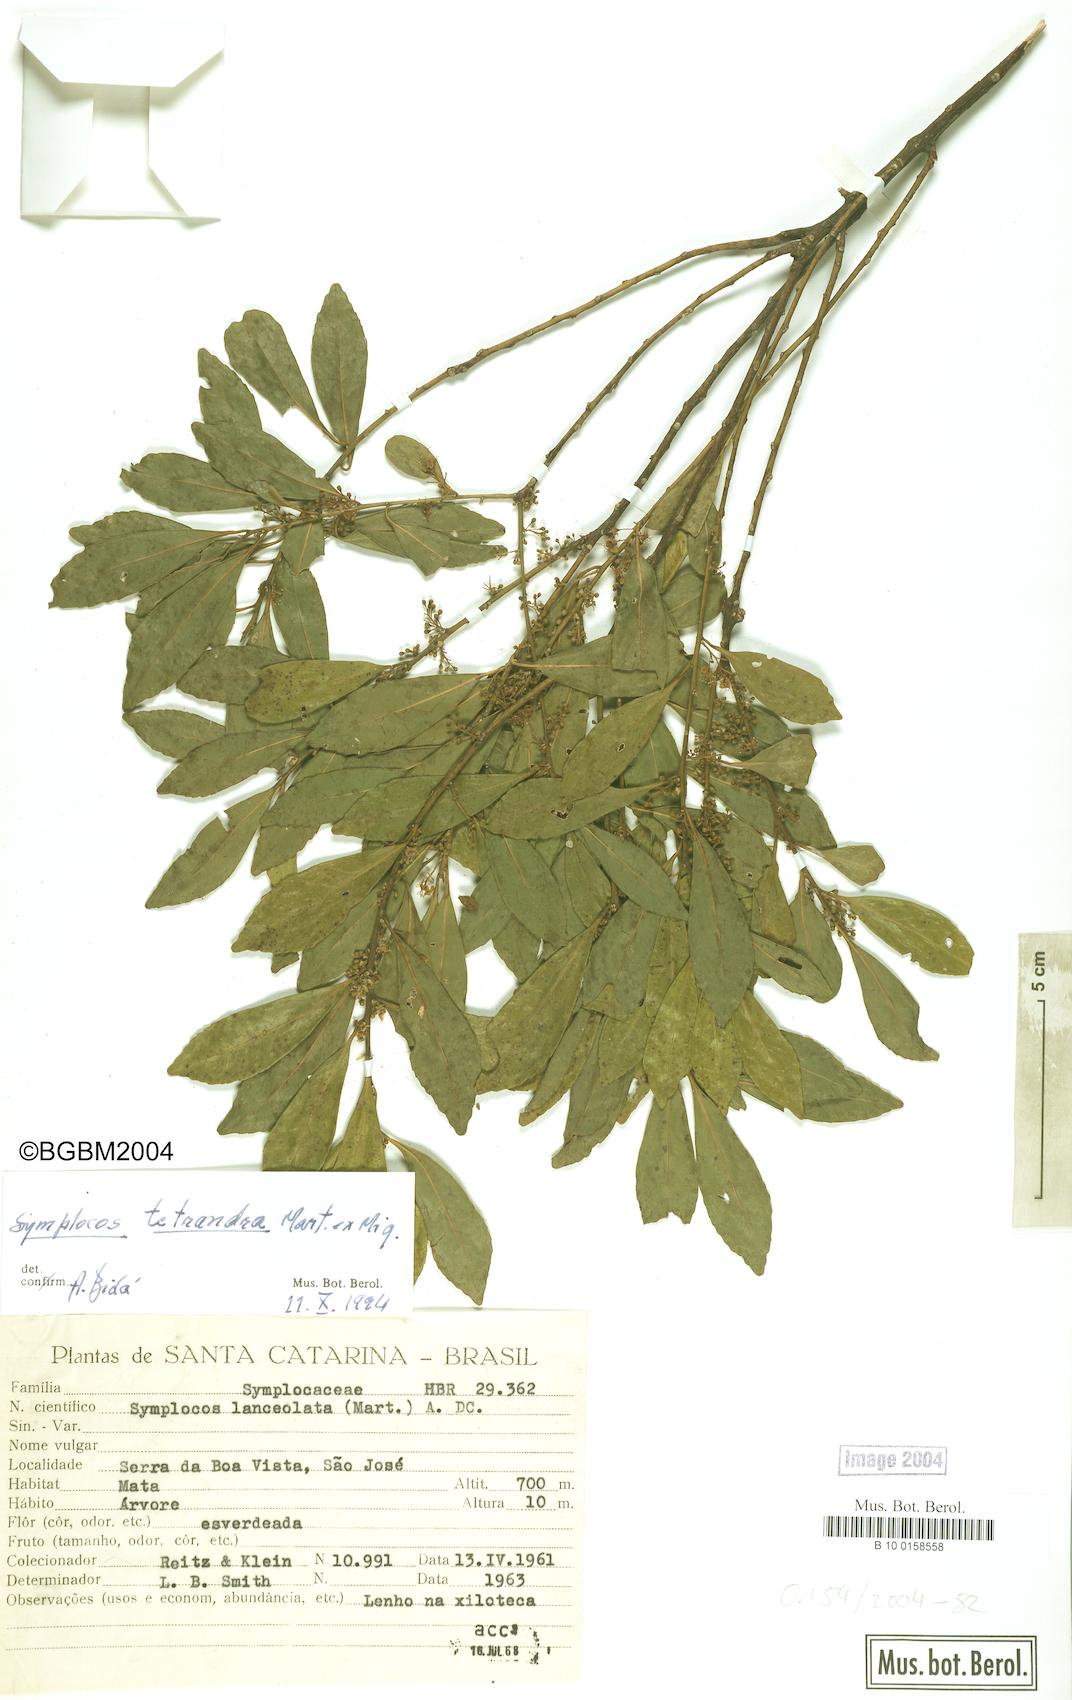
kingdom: Plantae
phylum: Tracheophyta
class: Magnoliopsida
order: Ericales
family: Symplocaceae
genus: Symplocos
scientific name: Symplocos tetrandra
